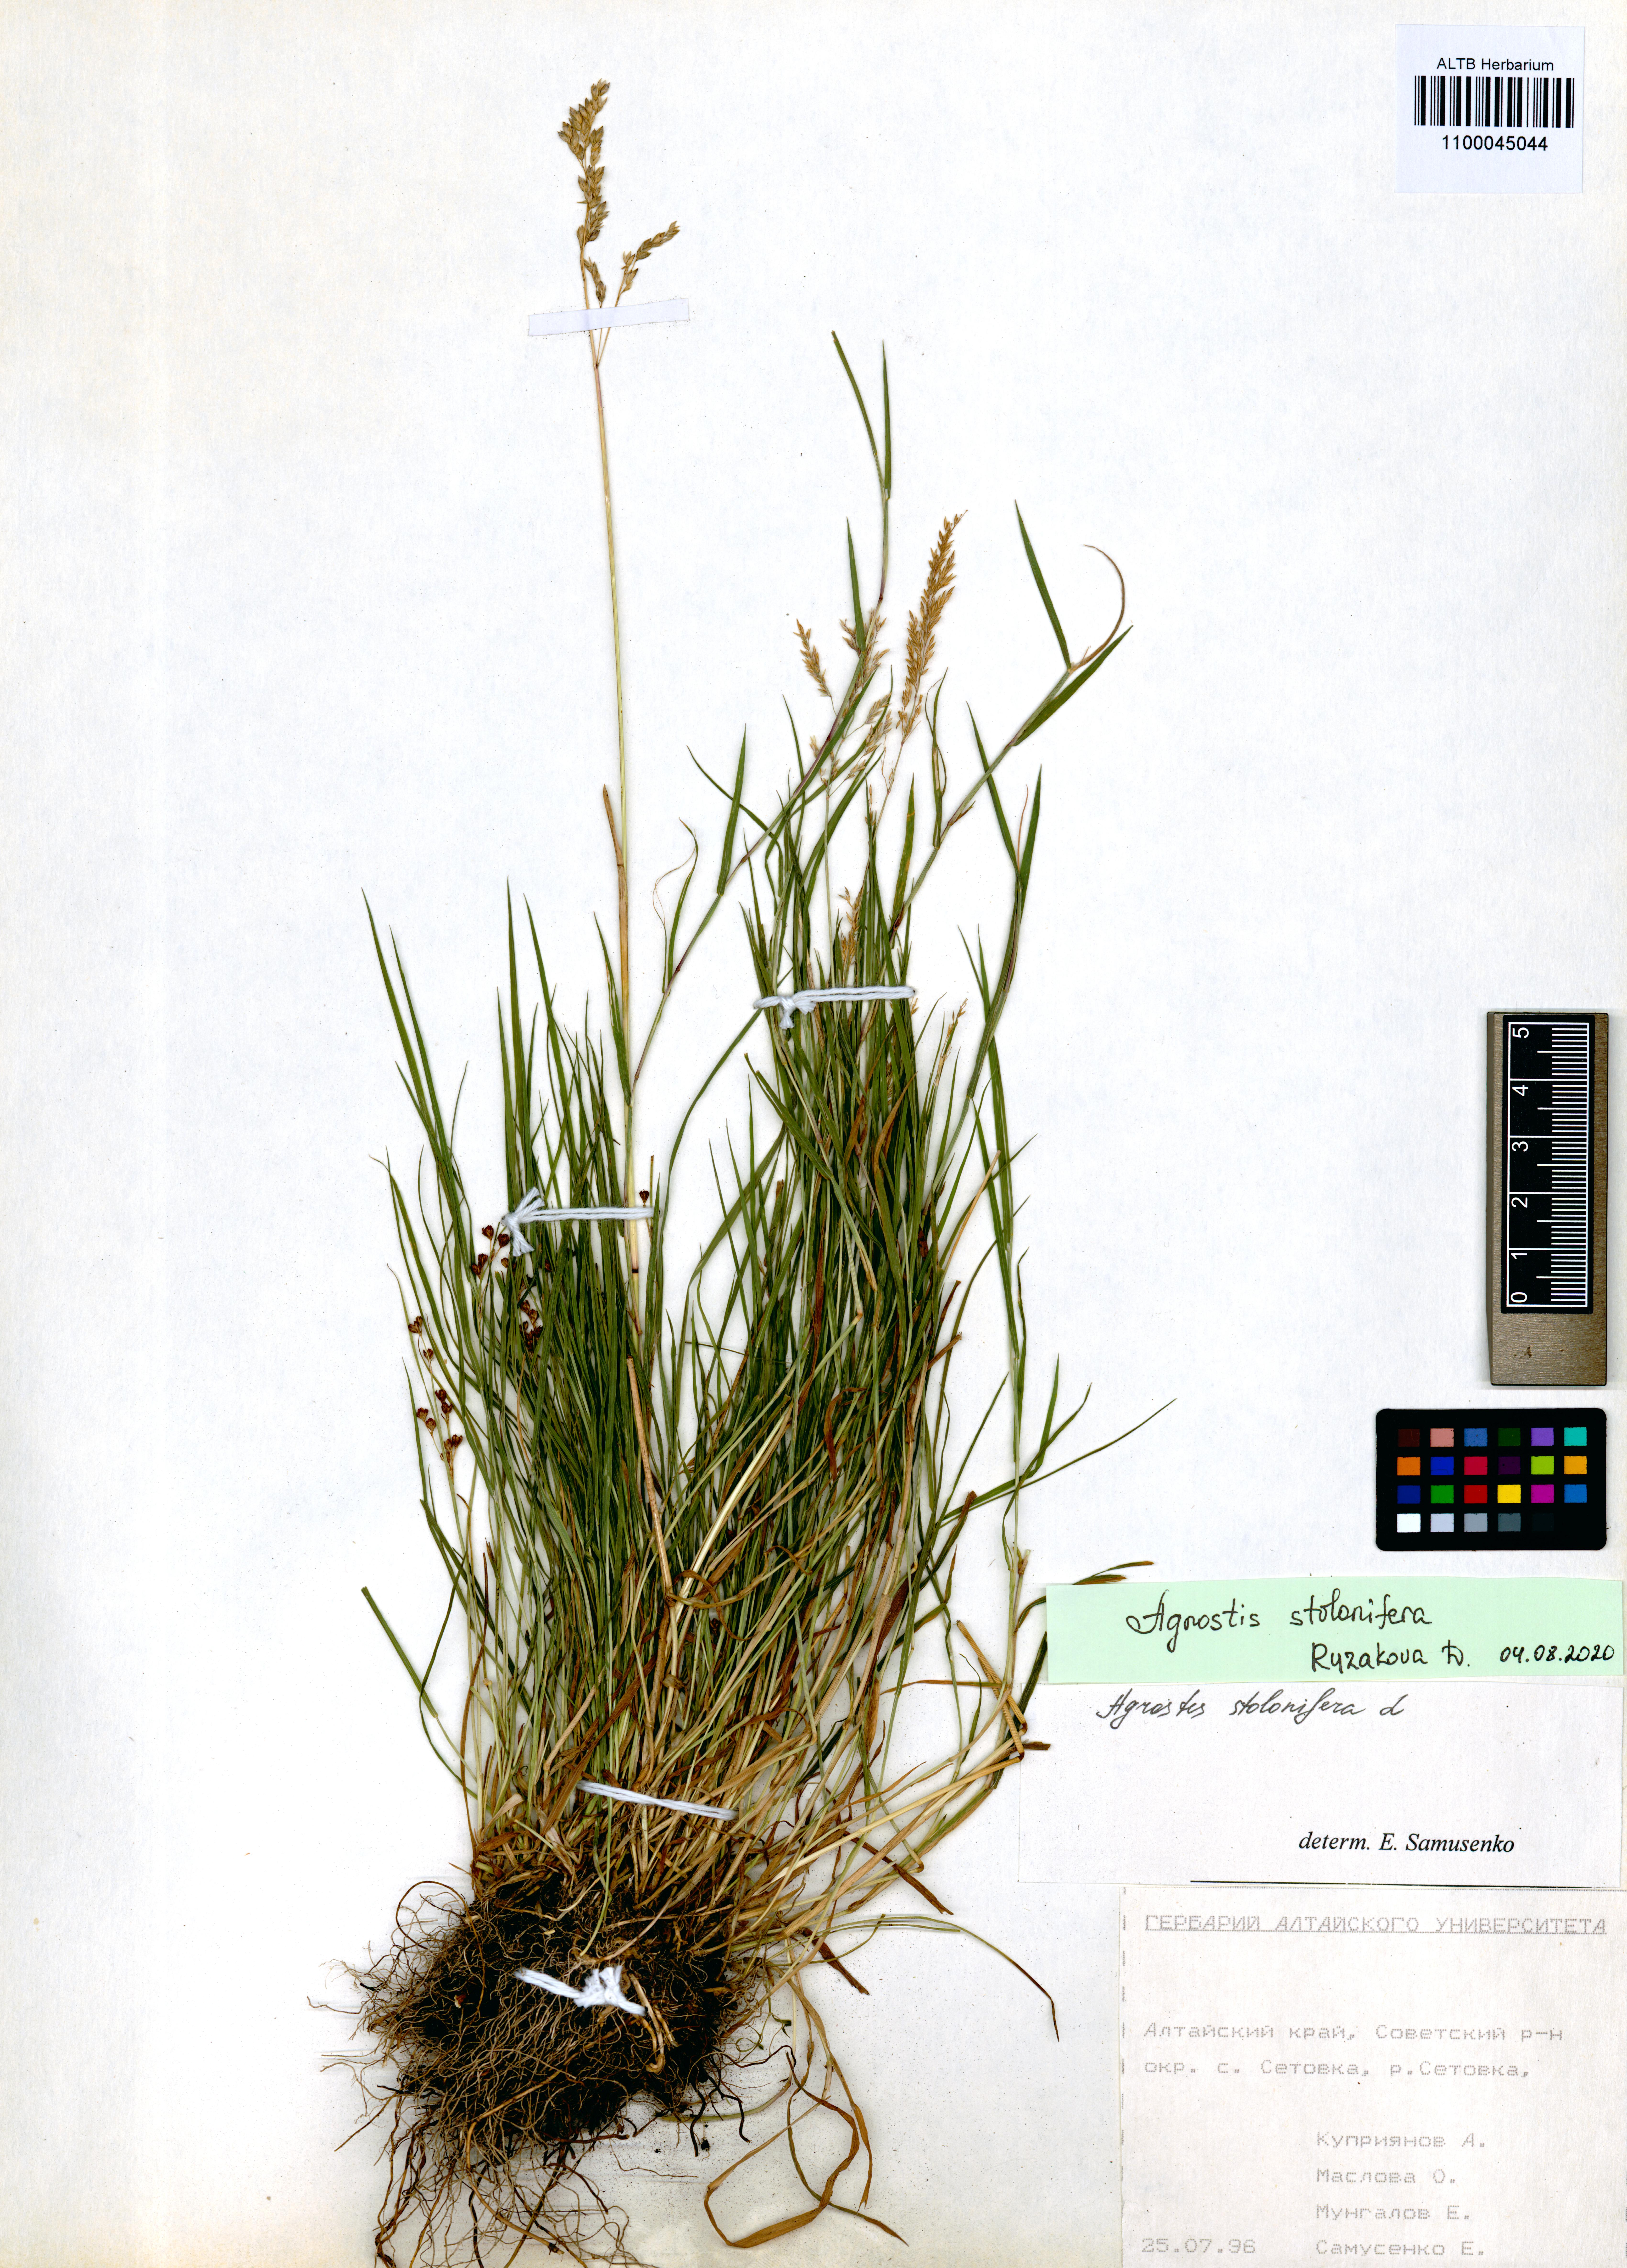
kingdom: Plantae
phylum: Tracheophyta
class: Liliopsida
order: Poales
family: Poaceae
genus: Agrostis
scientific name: Agrostis stolonifera
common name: Creeping bentgrass
